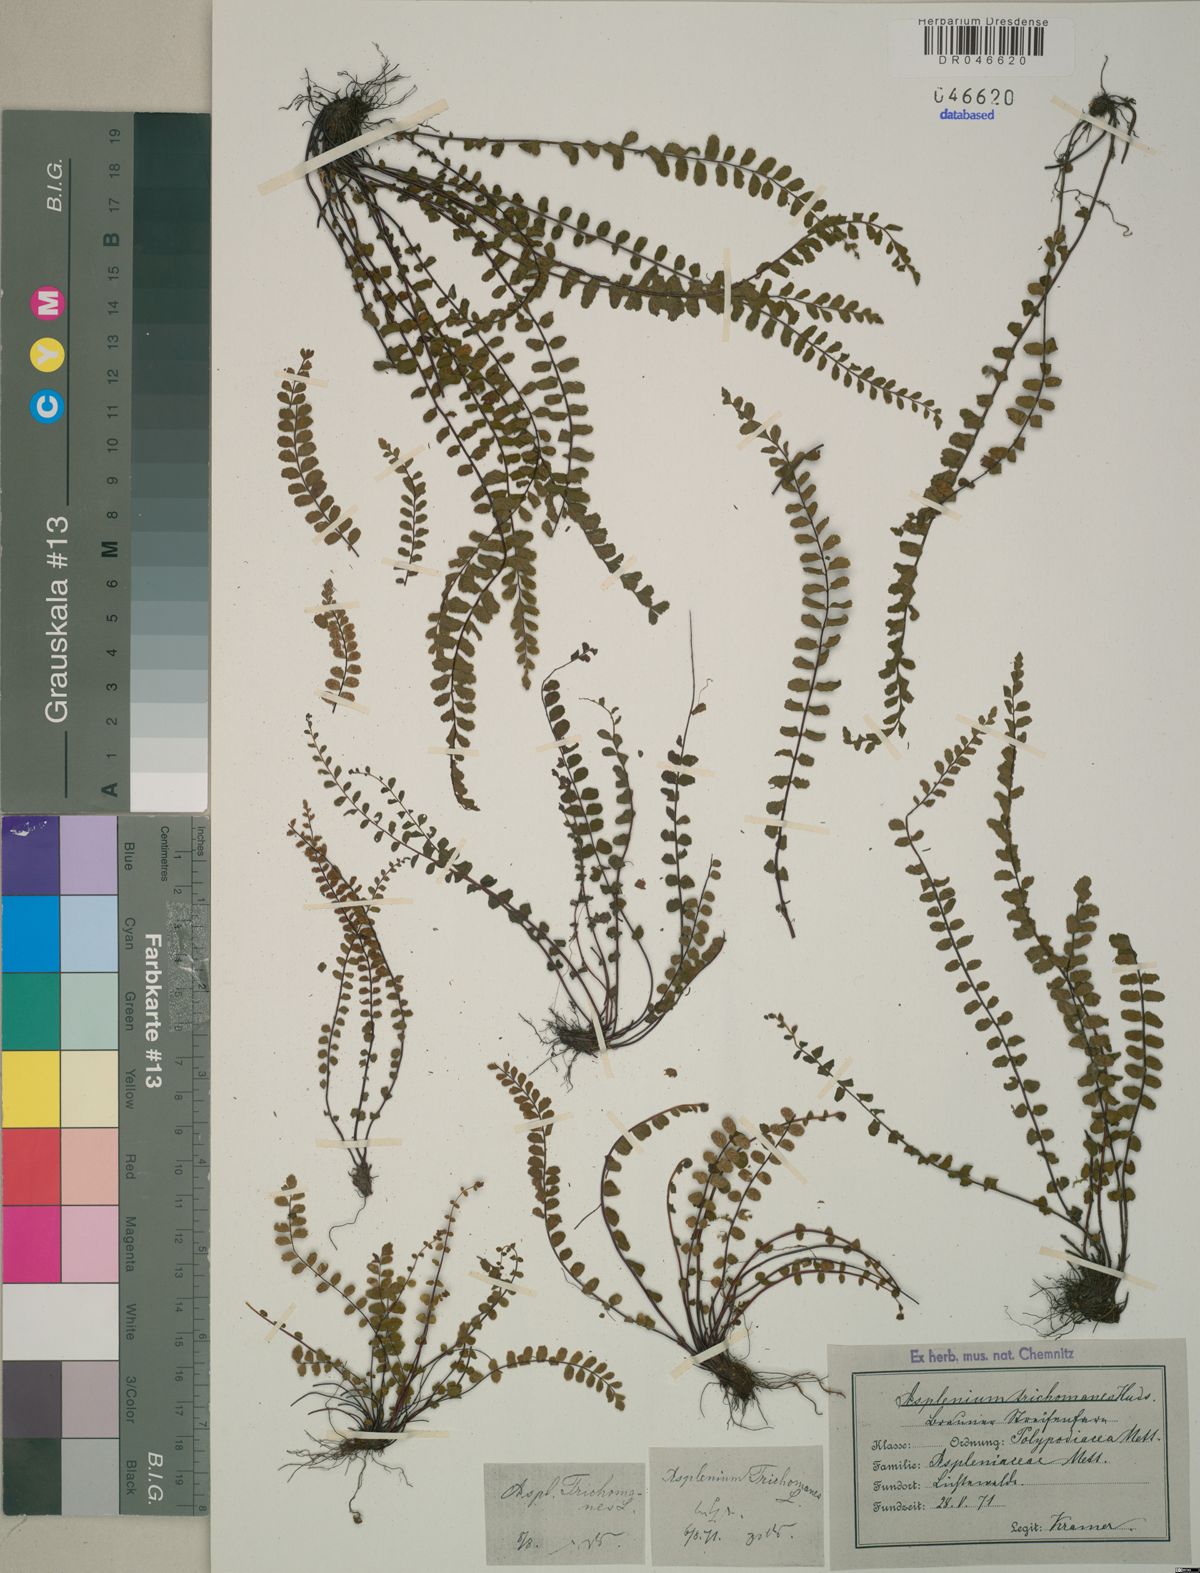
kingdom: Plantae
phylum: Tracheophyta
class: Polypodiopsida
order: Polypodiales
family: Aspleniaceae
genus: Asplenium
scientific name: Asplenium trichomanes
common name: Maidenhair spleenwort
